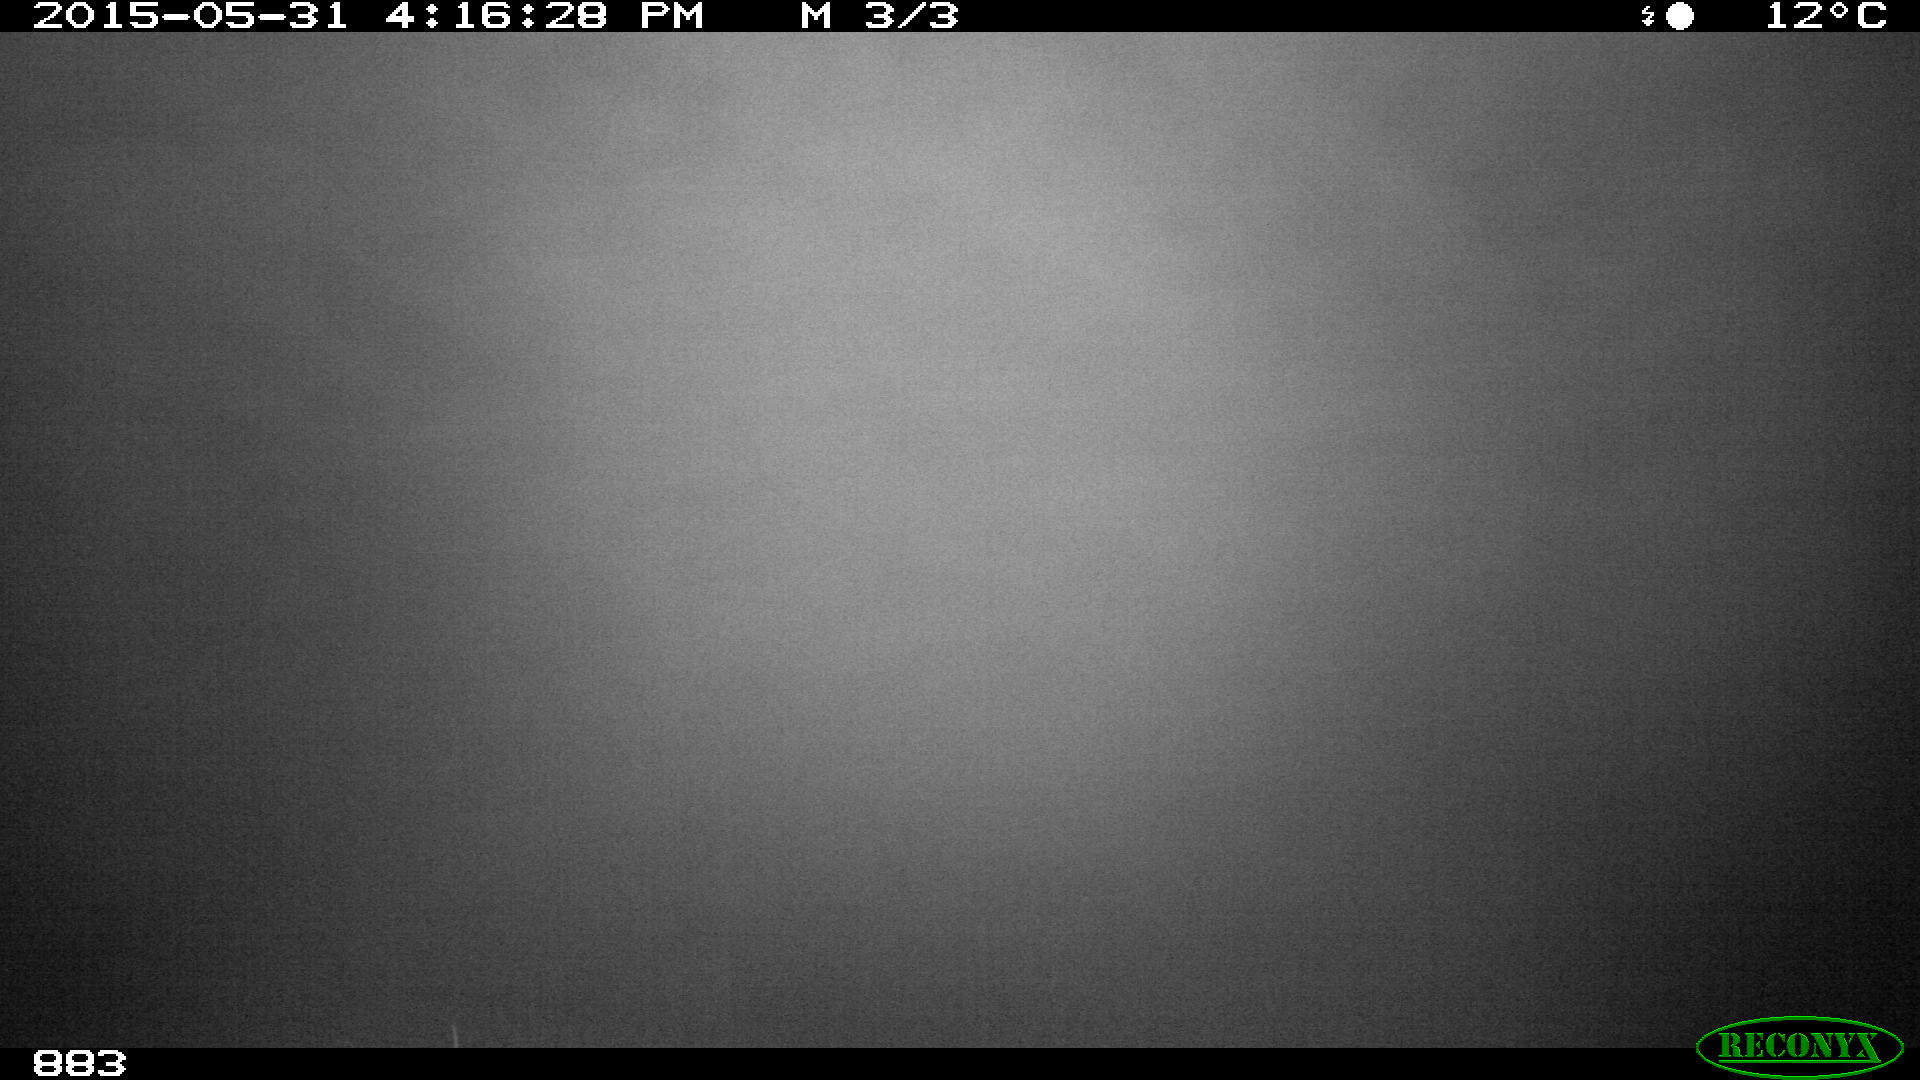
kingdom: Animalia
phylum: Chordata
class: Mammalia
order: Perissodactyla
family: Equidae
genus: Equus
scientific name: Equus caballus
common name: Horse
